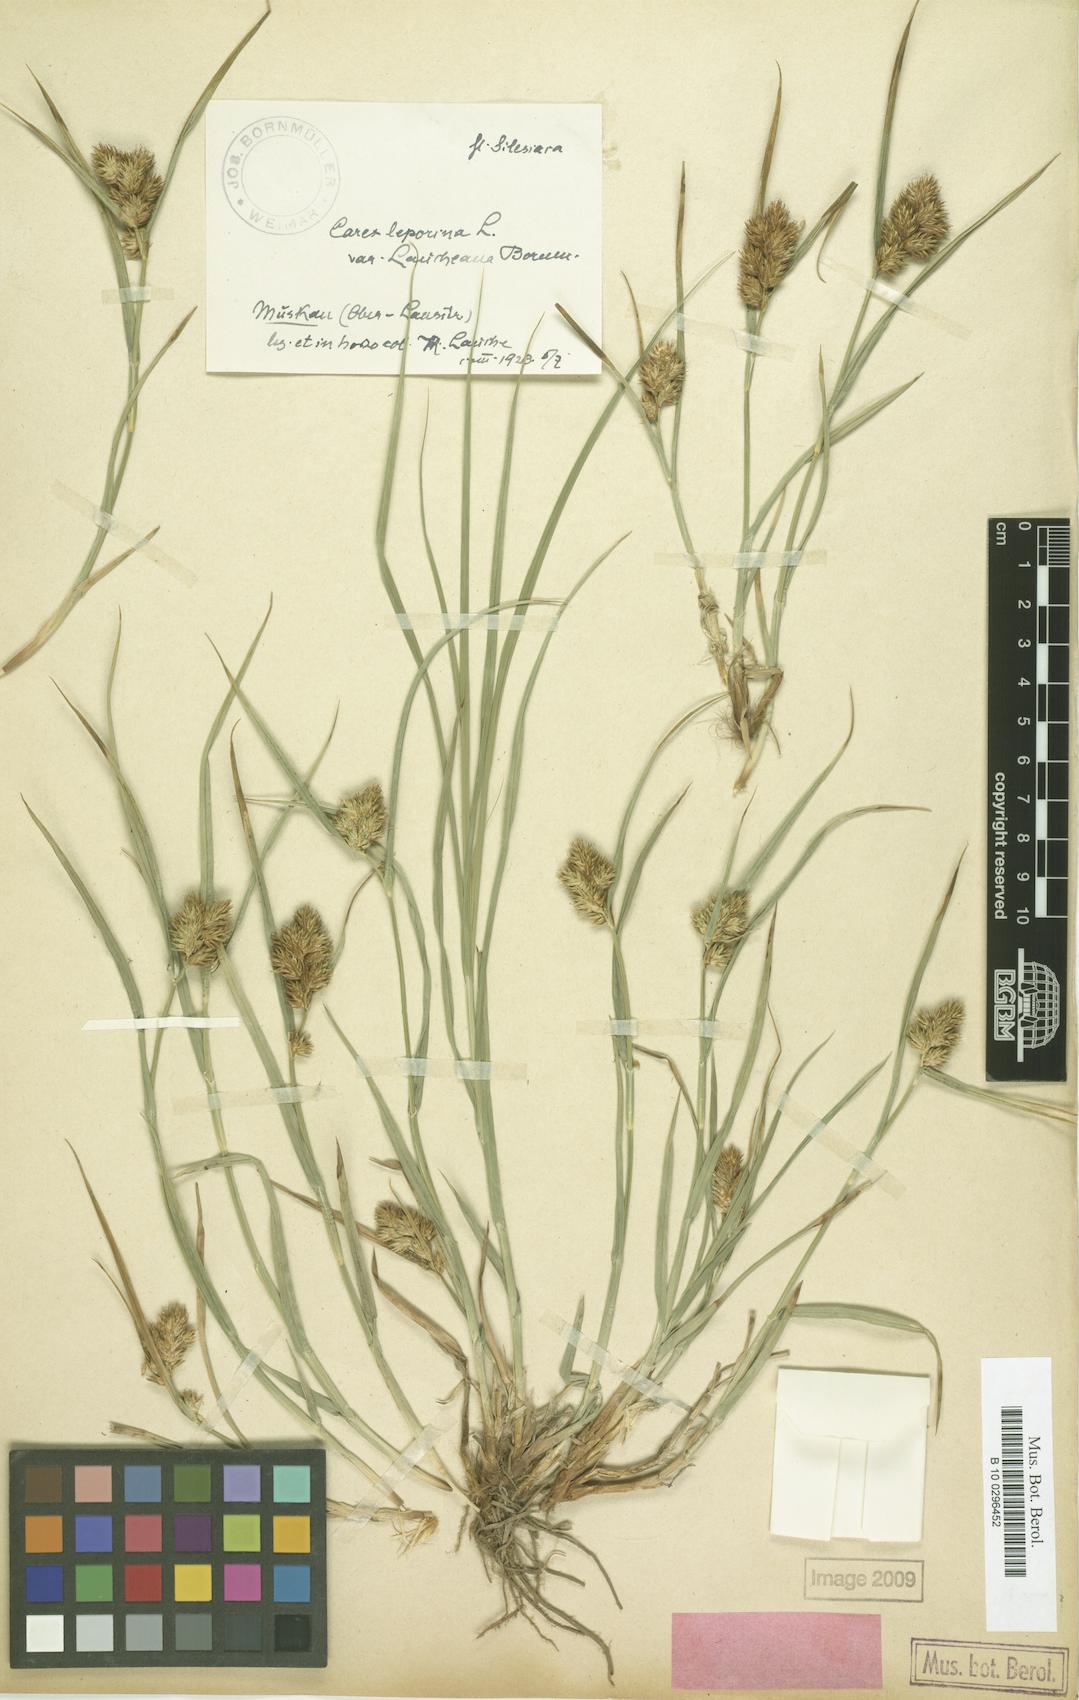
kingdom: Plantae
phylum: Tracheophyta
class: Liliopsida
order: Poales
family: Cyperaceae
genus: Carex
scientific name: Carex leporina
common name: Oval sedge
